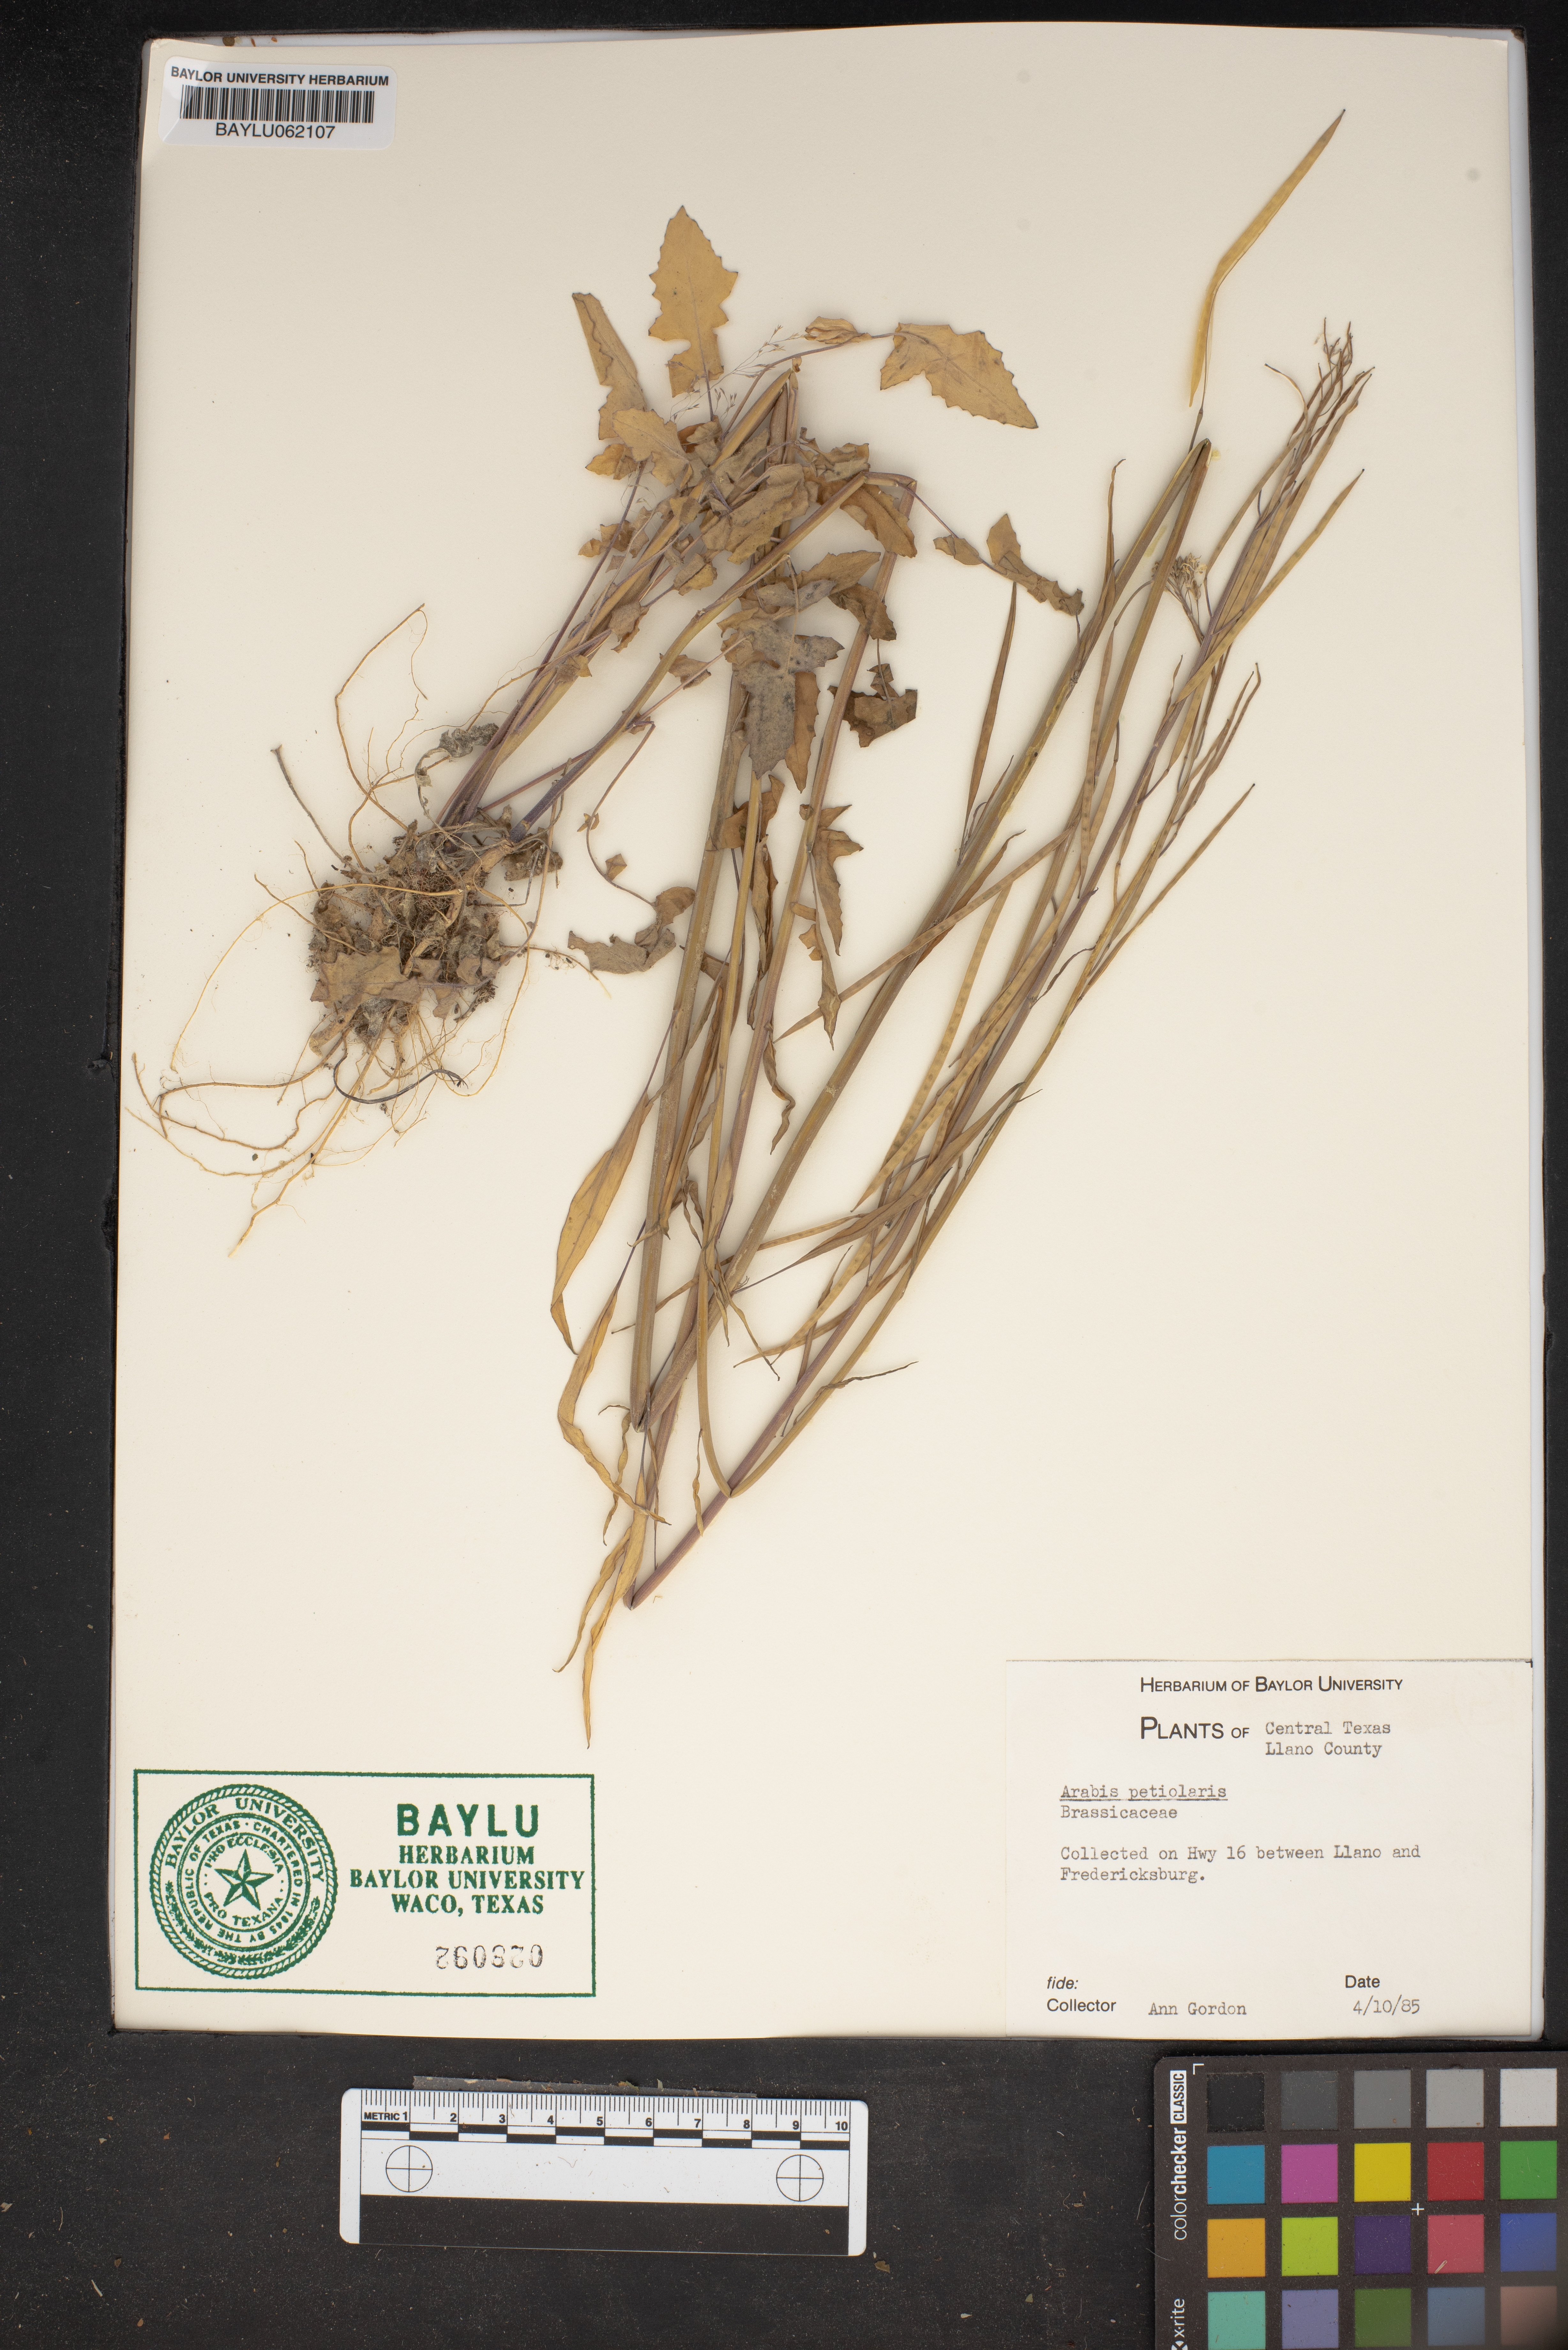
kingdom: Plantae
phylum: Tracheophyta
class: Magnoliopsida
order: Brassicales
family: Brassicaceae
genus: Streptanthus
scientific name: Streptanthus petiolaris
